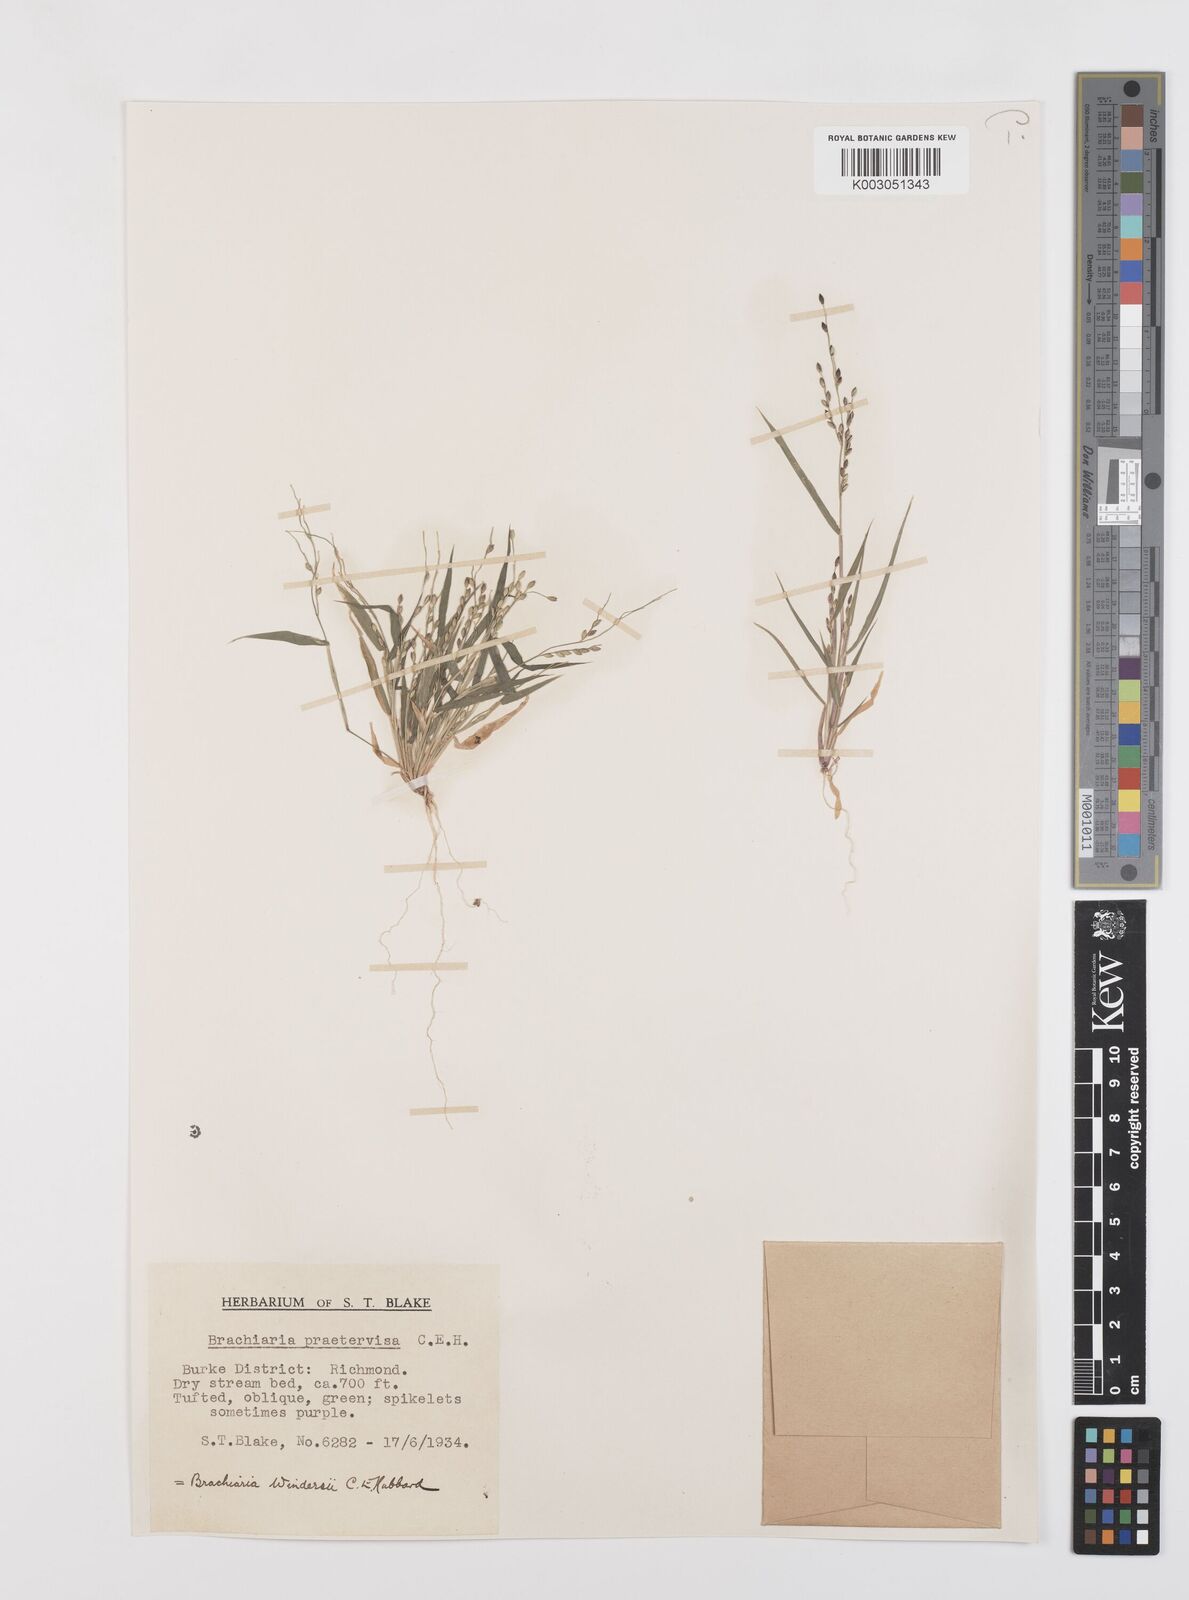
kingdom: Plantae
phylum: Tracheophyta
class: Liliopsida
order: Poales
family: Poaceae
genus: Urochloa
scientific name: Urochloa whiteana
